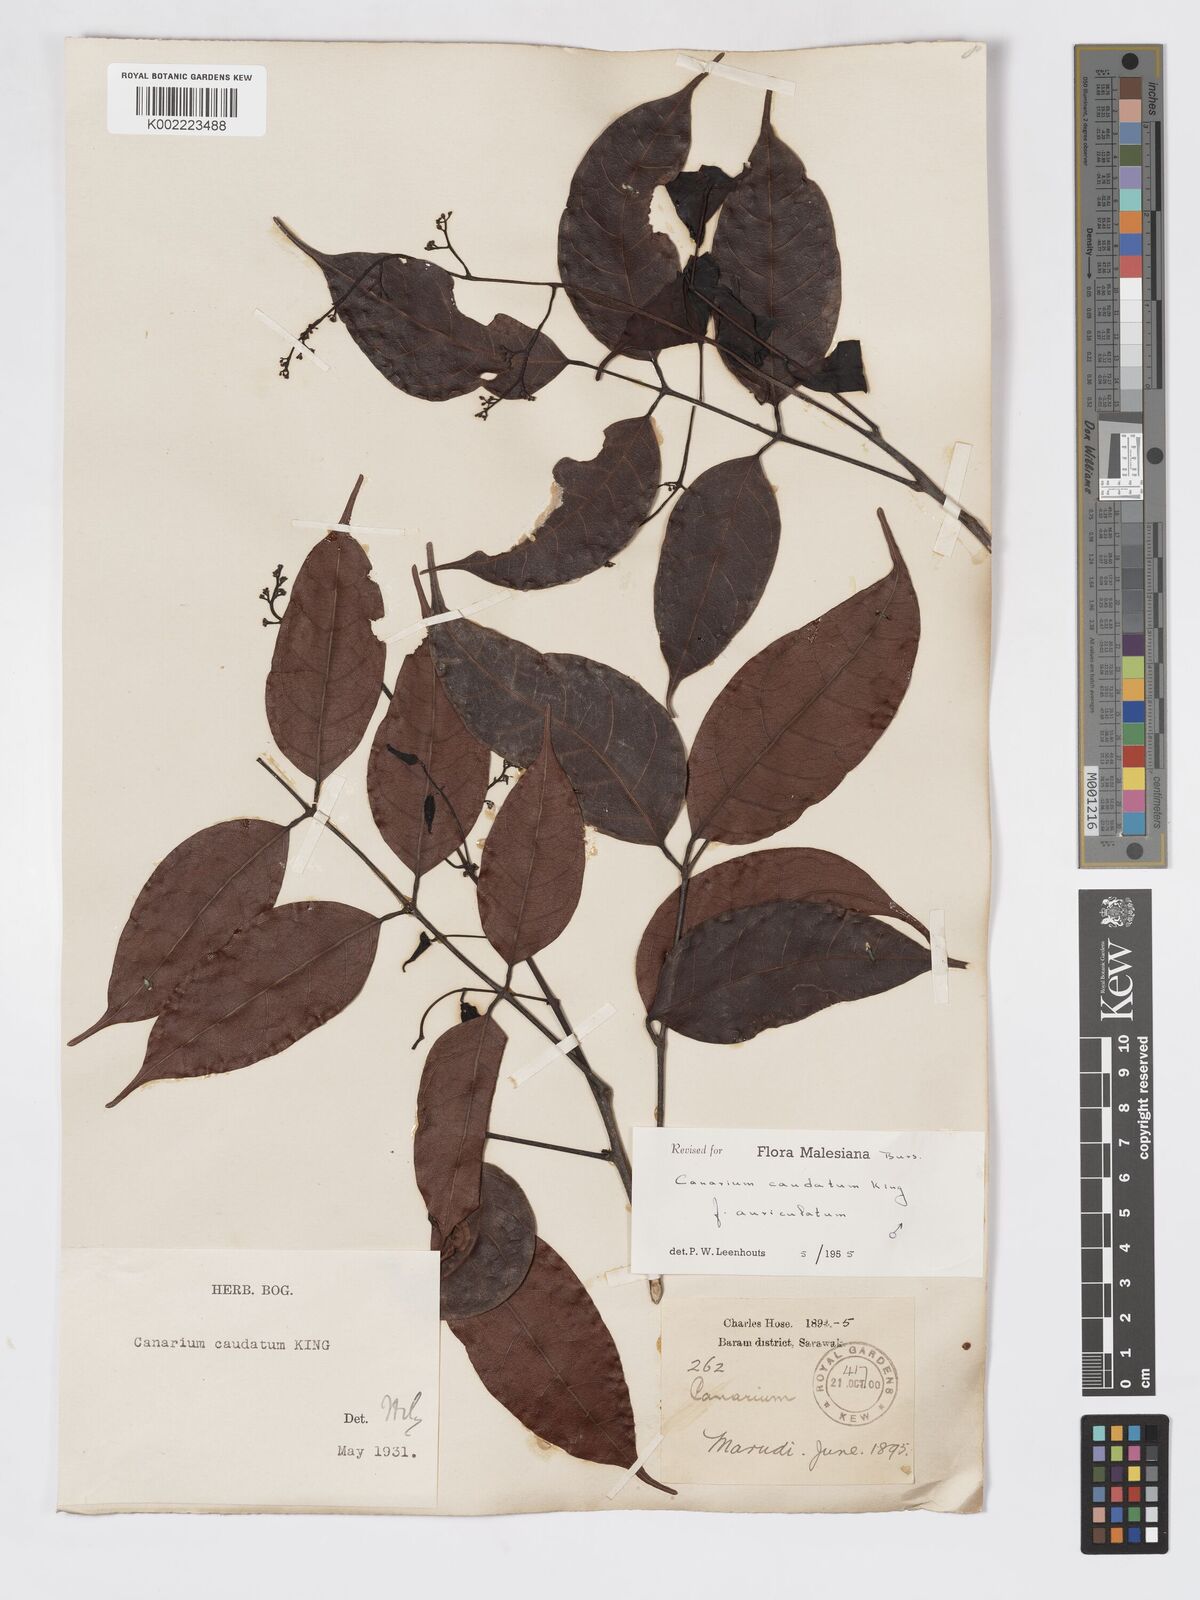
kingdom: Plantae
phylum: Tracheophyta
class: Magnoliopsida
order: Sapindales
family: Burseraceae
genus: Canarium
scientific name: Canarium caudatum
